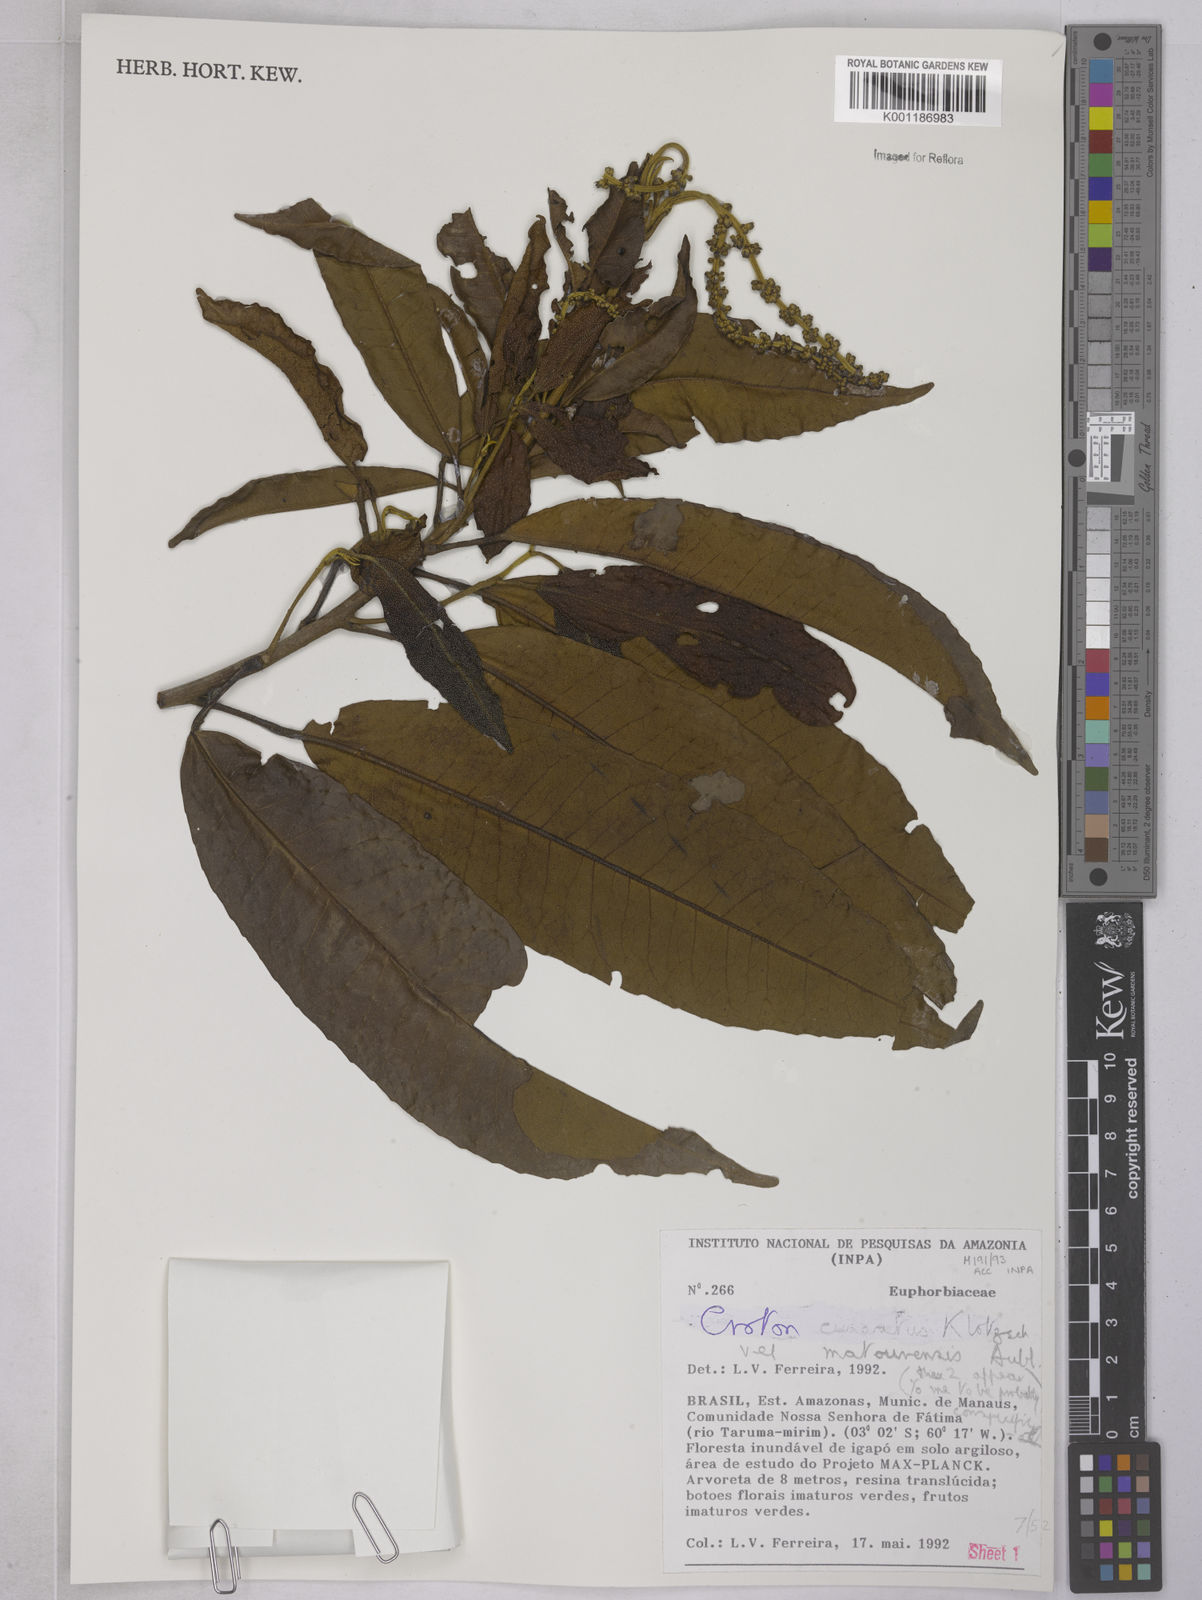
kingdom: Plantae
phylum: Tracheophyta
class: Magnoliopsida
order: Malpighiales
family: Euphorbiaceae
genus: Croton
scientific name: Croton
